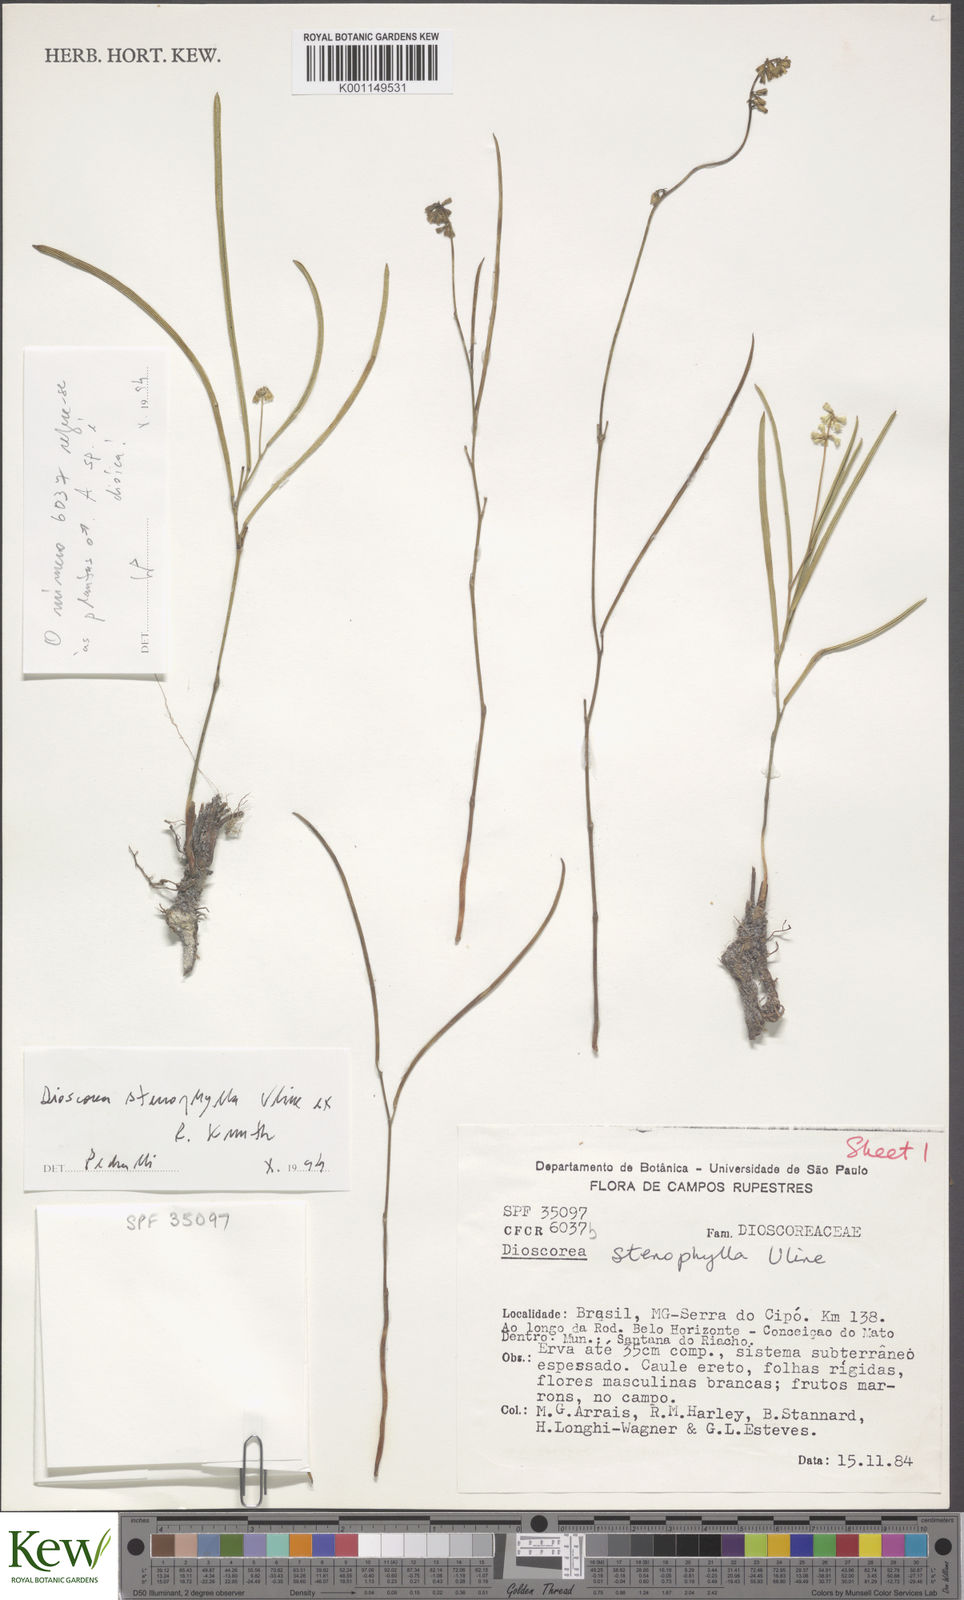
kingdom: Plantae
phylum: Tracheophyta
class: Liliopsida
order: Dioscoreales
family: Dioscoreaceae
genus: Dioscorea
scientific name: Dioscorea anomala
